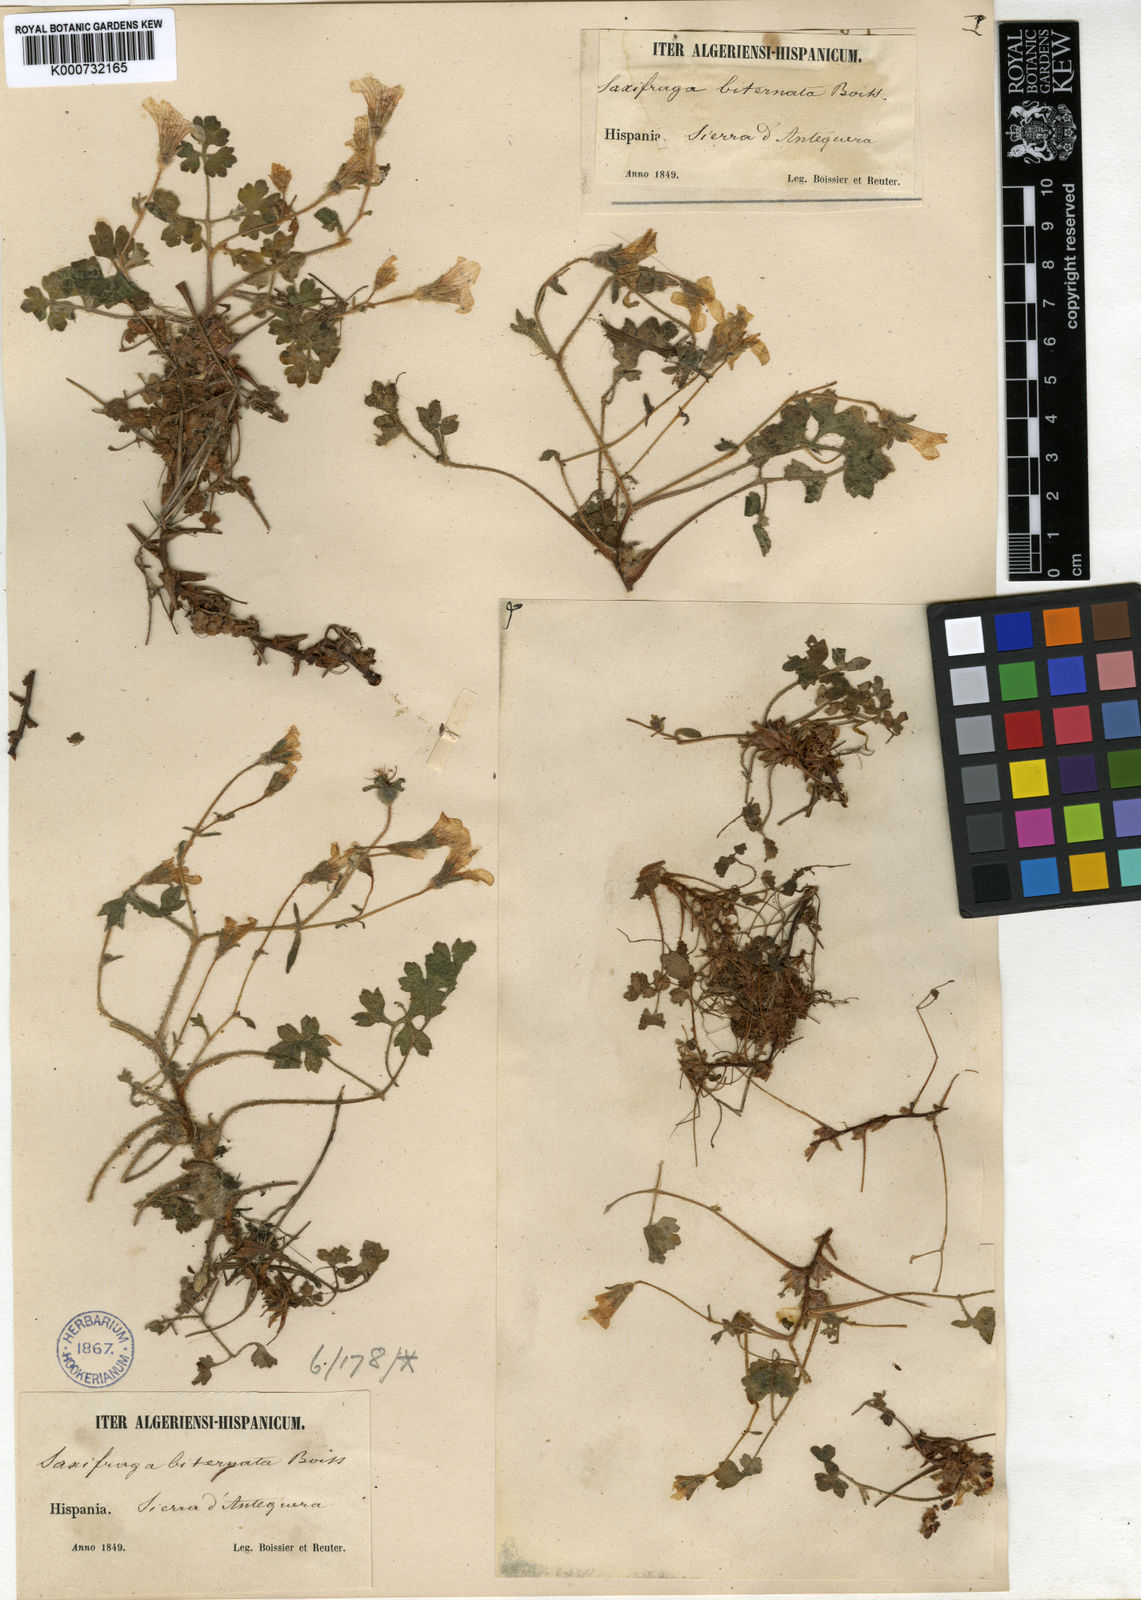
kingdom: Plantae
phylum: Tracheophyta
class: Magnoliopsida
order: Saxifragales
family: Saxifragaceae
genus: Saxifraga
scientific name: Saxifraga biternata
